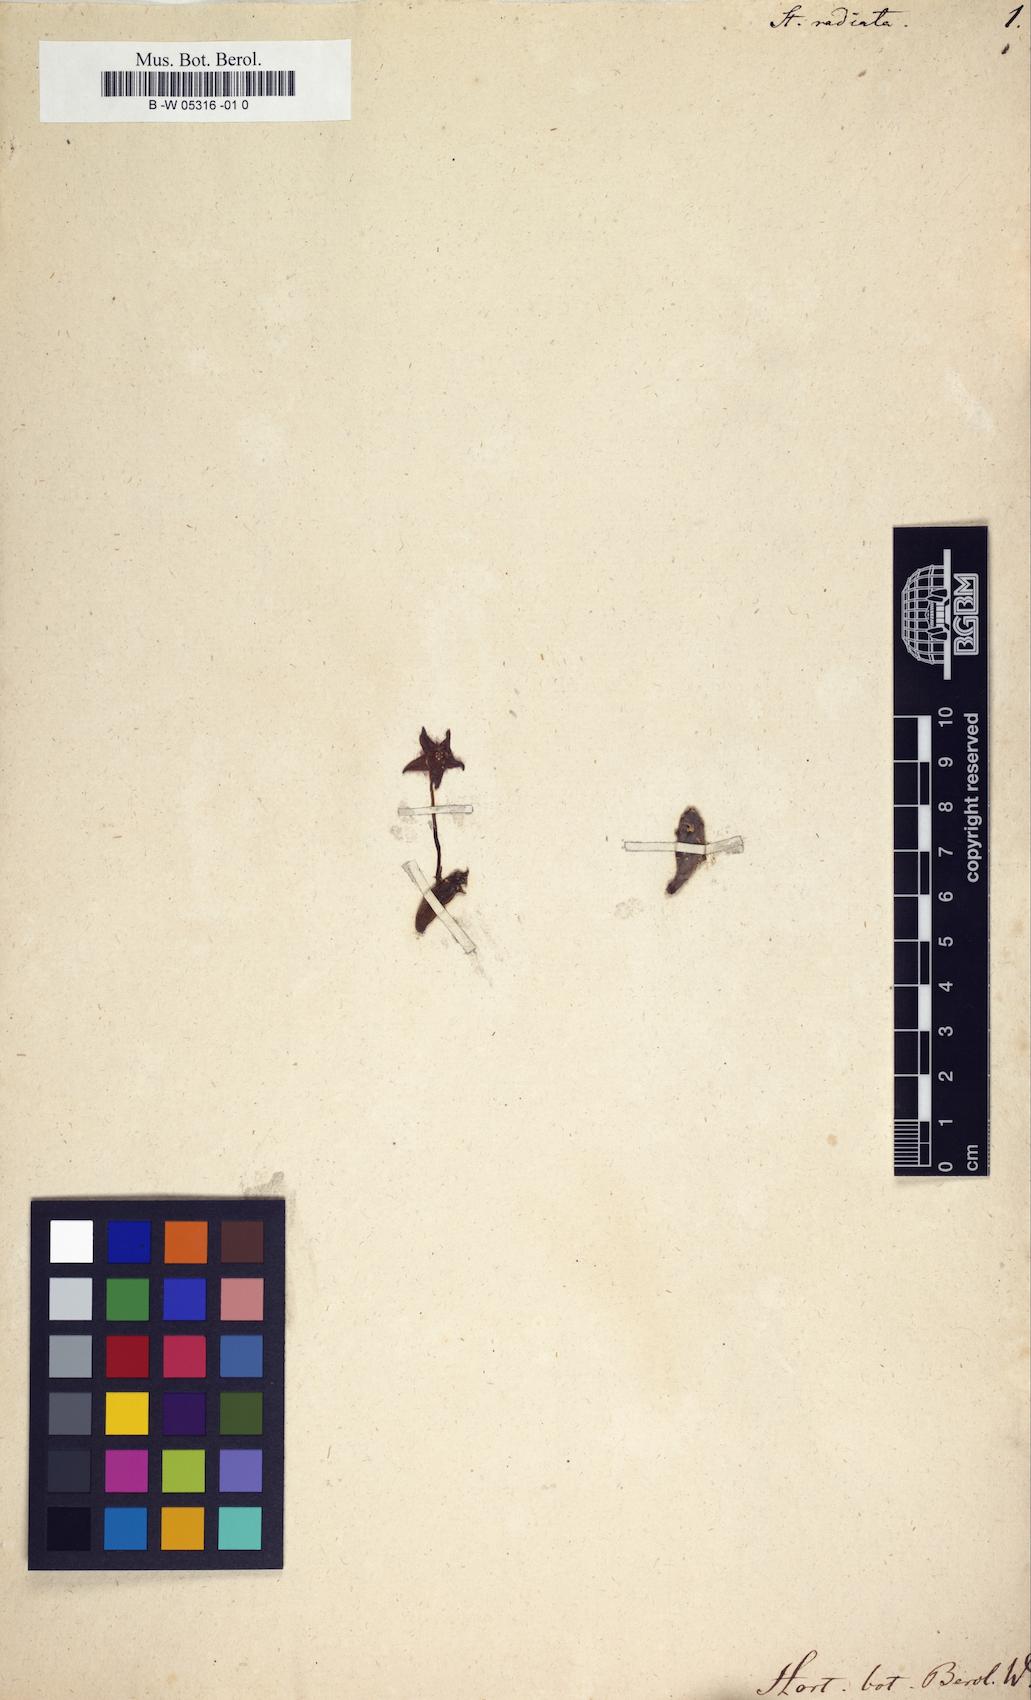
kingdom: Plantae
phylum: Tracheophyta
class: Magnoliopsida
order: Gentianales
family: Apocynaceae
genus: Ceropegia
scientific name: Ceropegia
